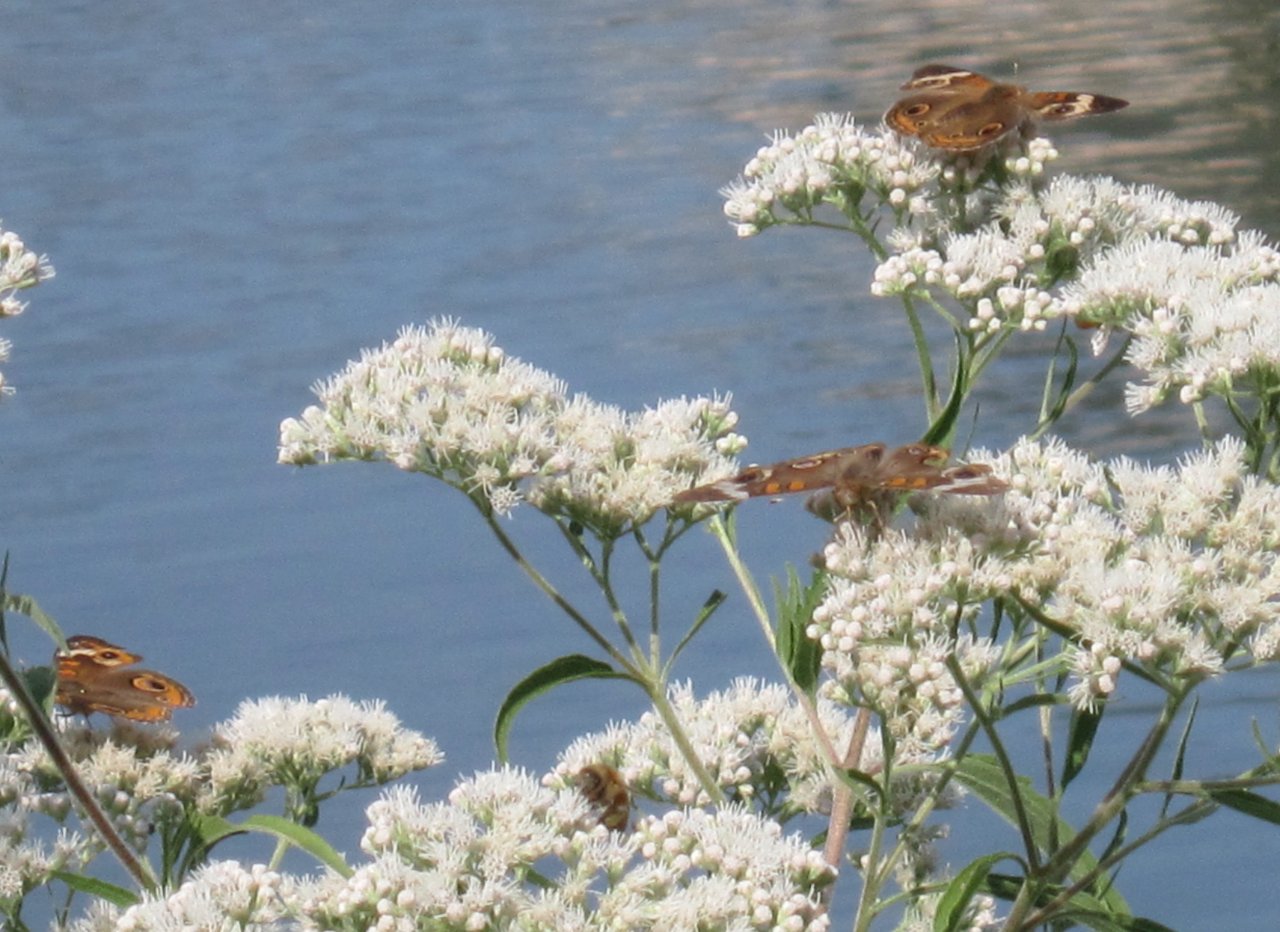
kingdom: Animalia
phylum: Arthropoda
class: Insecta
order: Lepidoptera
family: Nymphalidae
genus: Junonia
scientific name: Junonia coenia
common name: Common Buckeye
